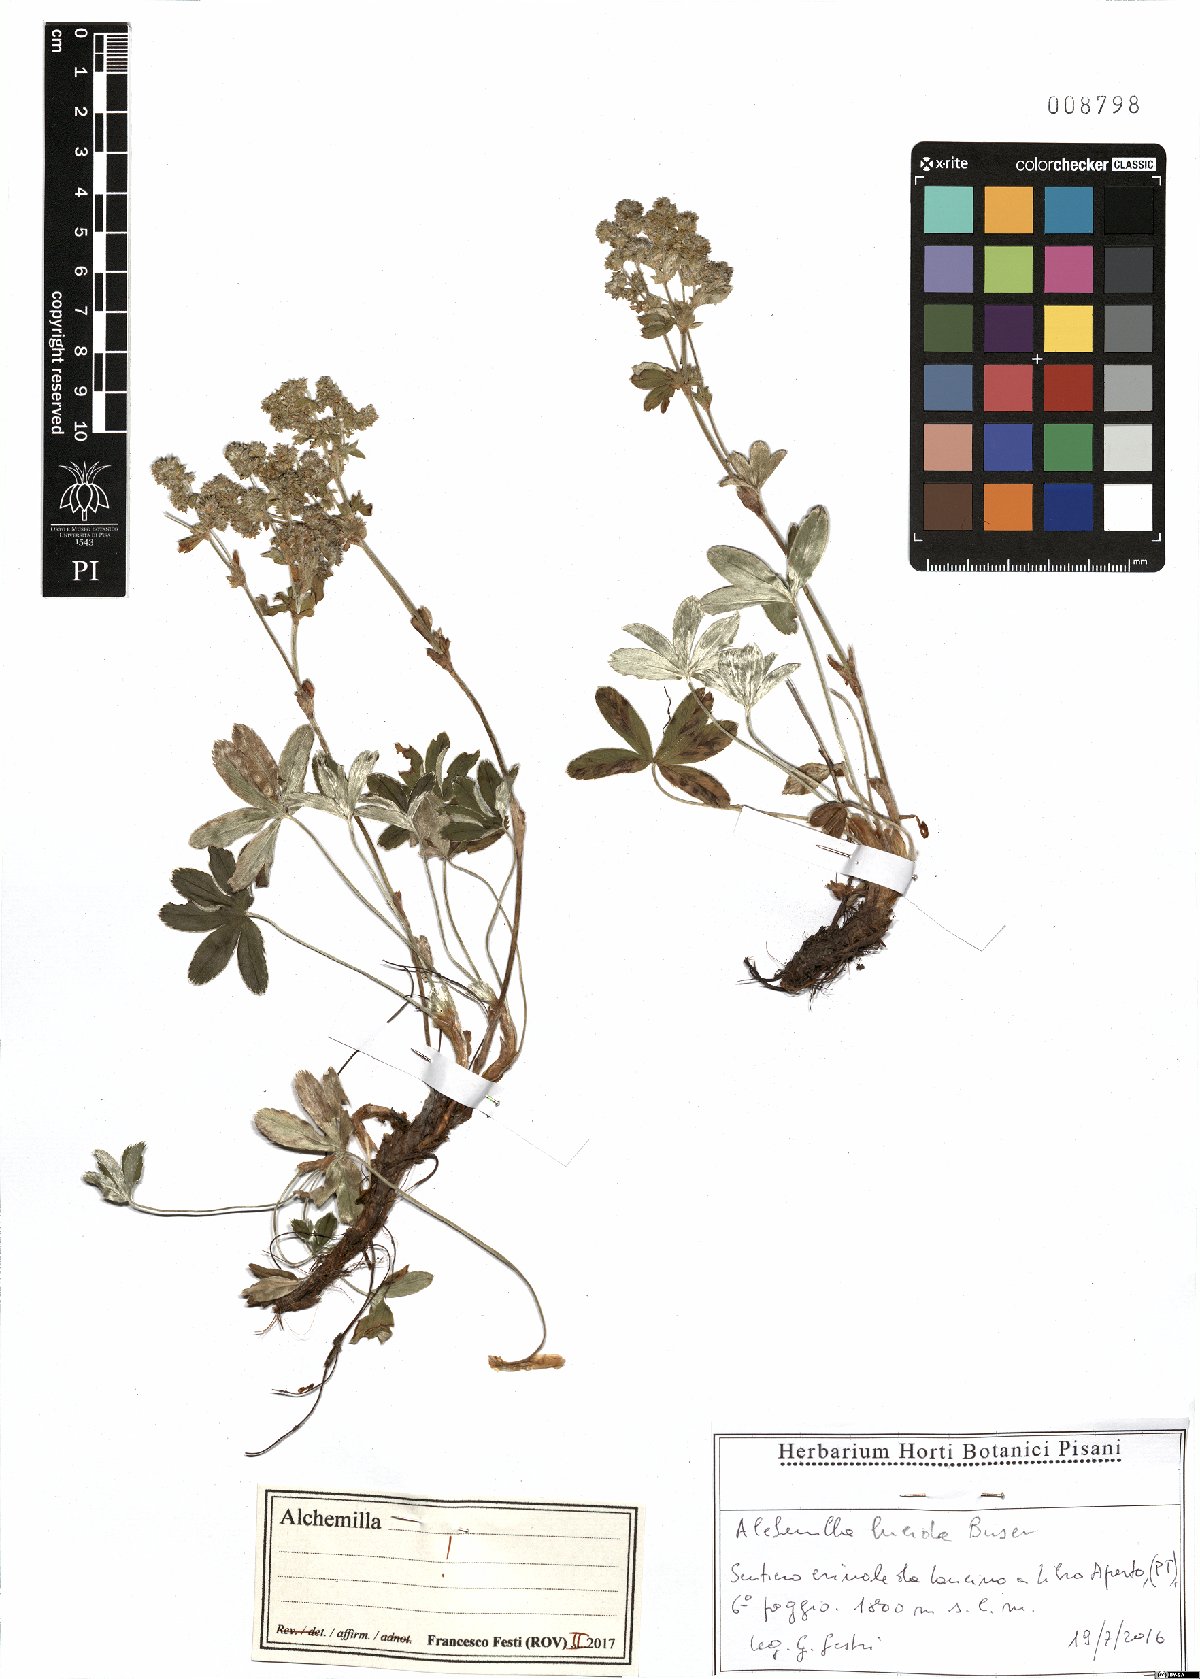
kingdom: Plantae
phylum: Tracheophyta
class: Magnoliopsida
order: Rosales
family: Rosaceae
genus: Alchemilla
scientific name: Alchemilla lucida
